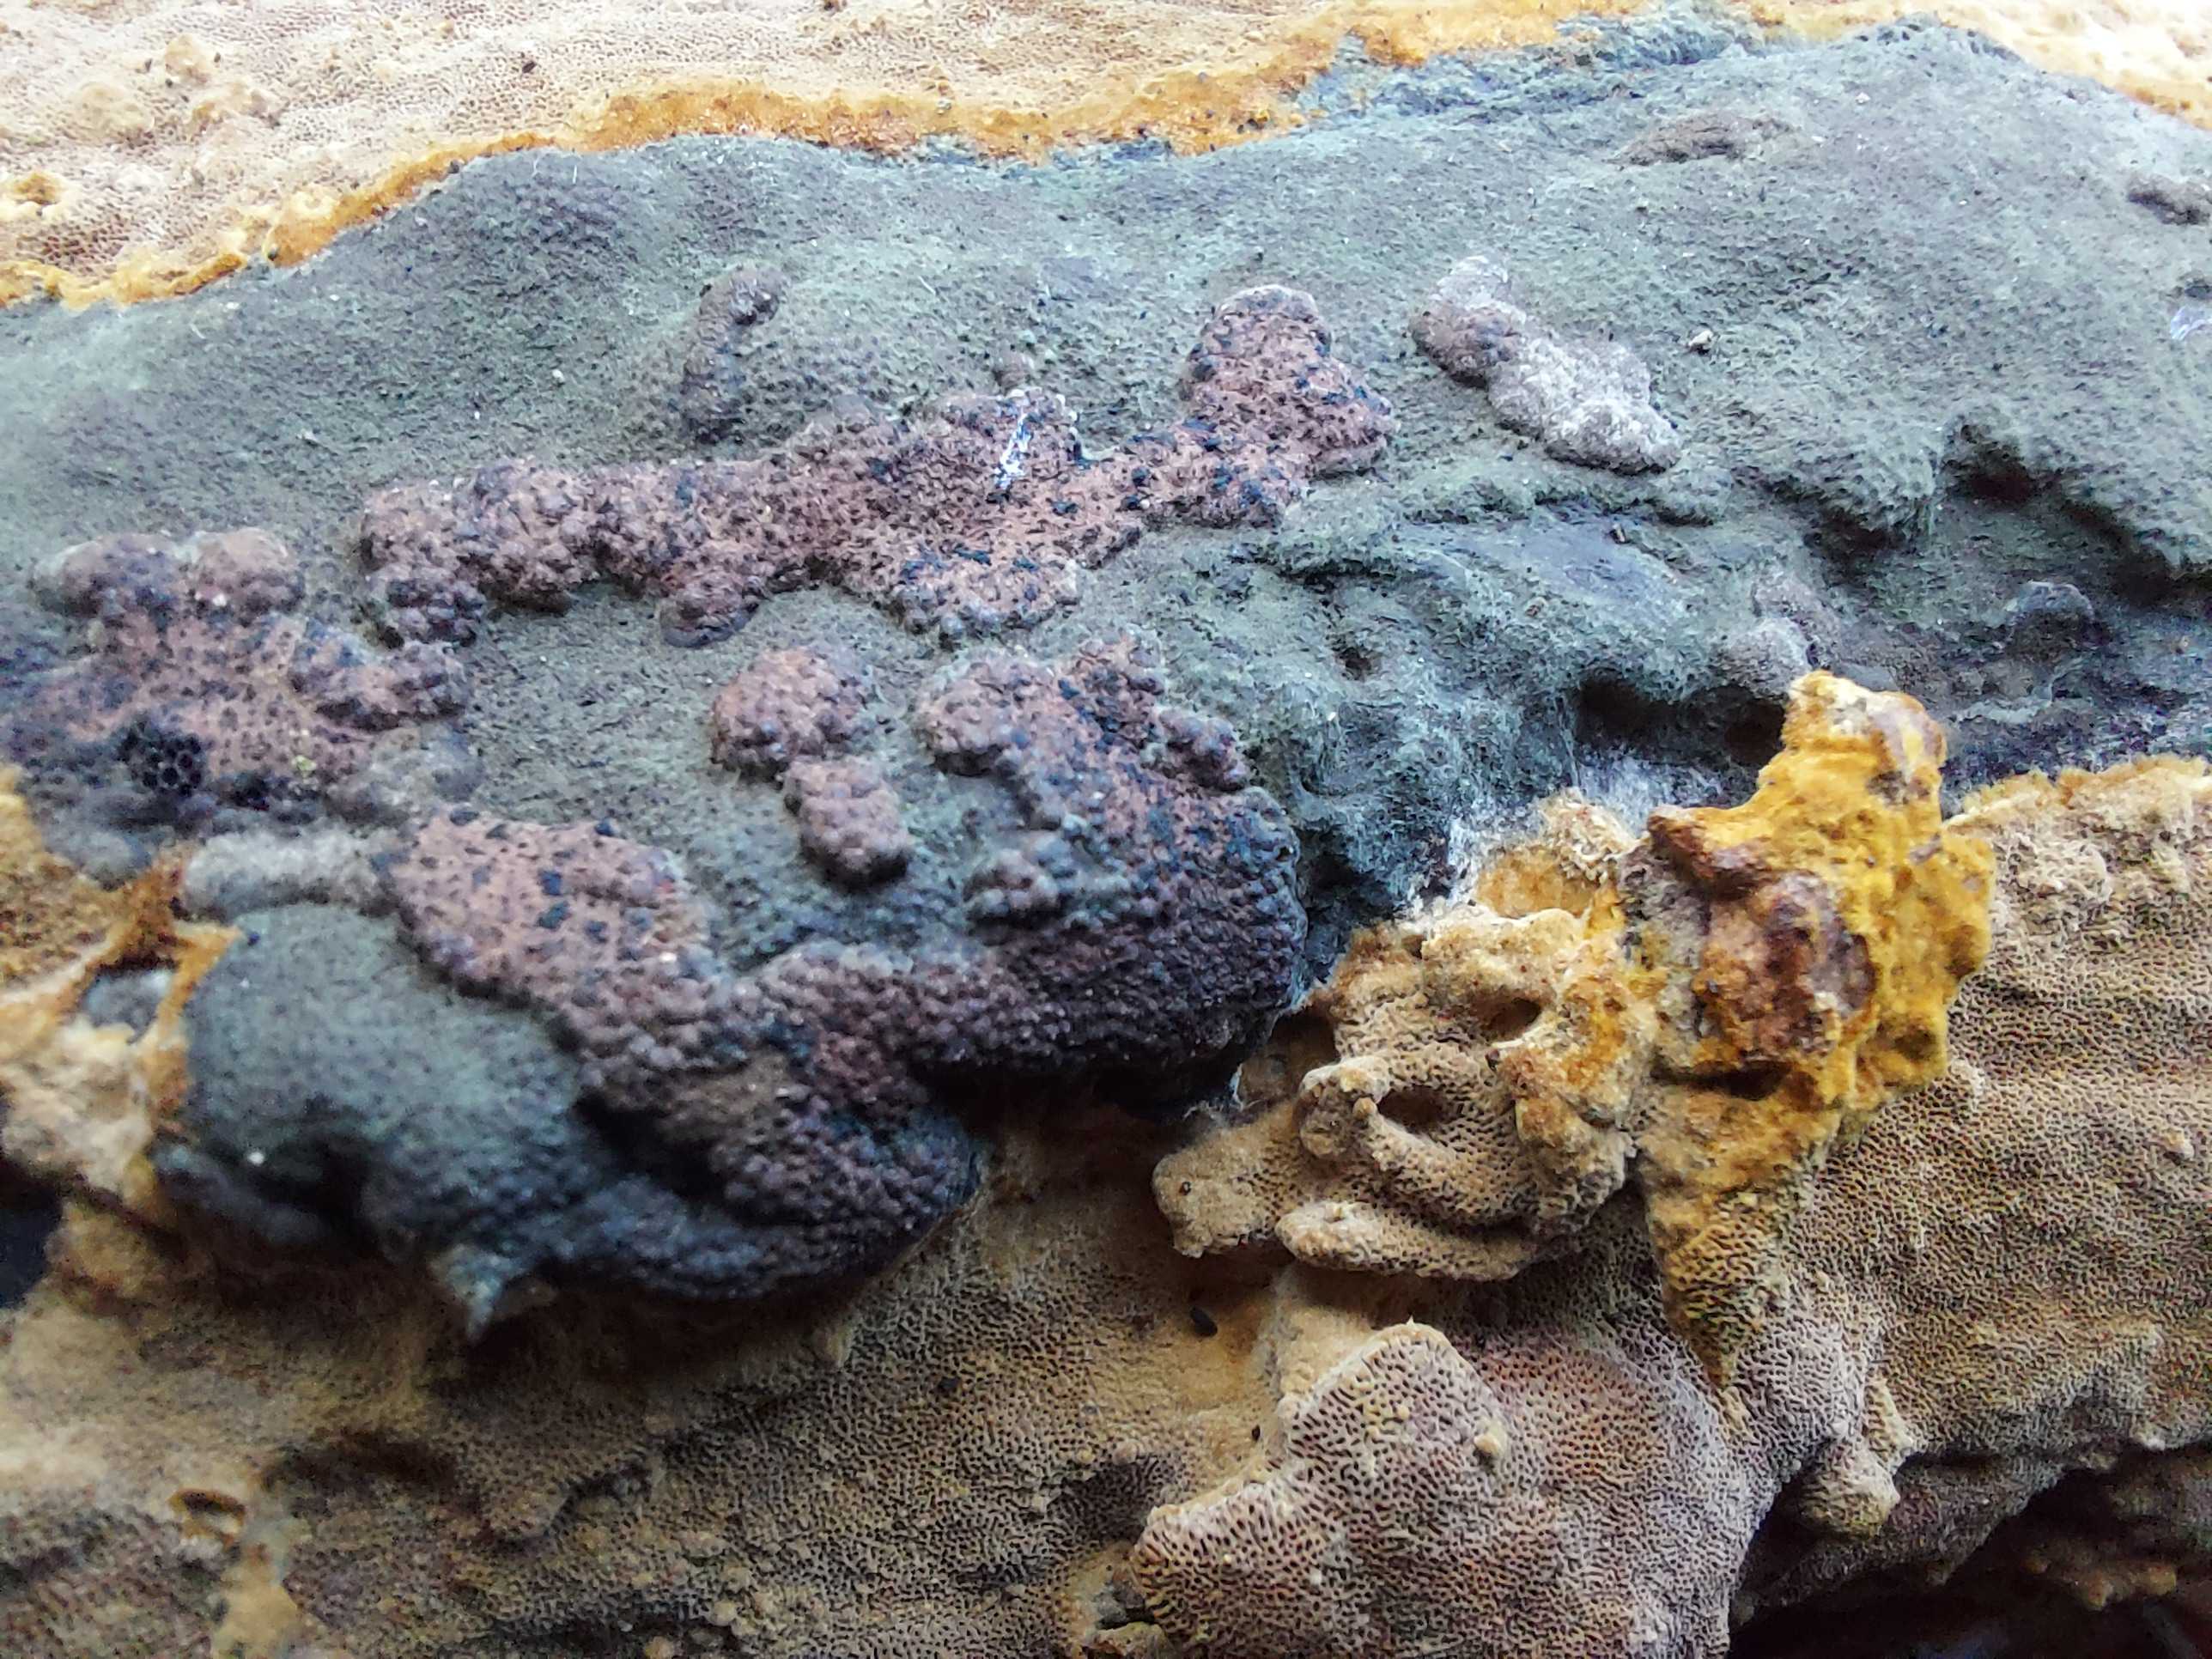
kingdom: Fungi
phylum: Ascomycota
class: Sordariomycetes
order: Xylariales
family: Hypoxylaceae
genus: Hypoxylon
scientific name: Hypoxylon rubiginosum
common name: rustfarvet kulbær
